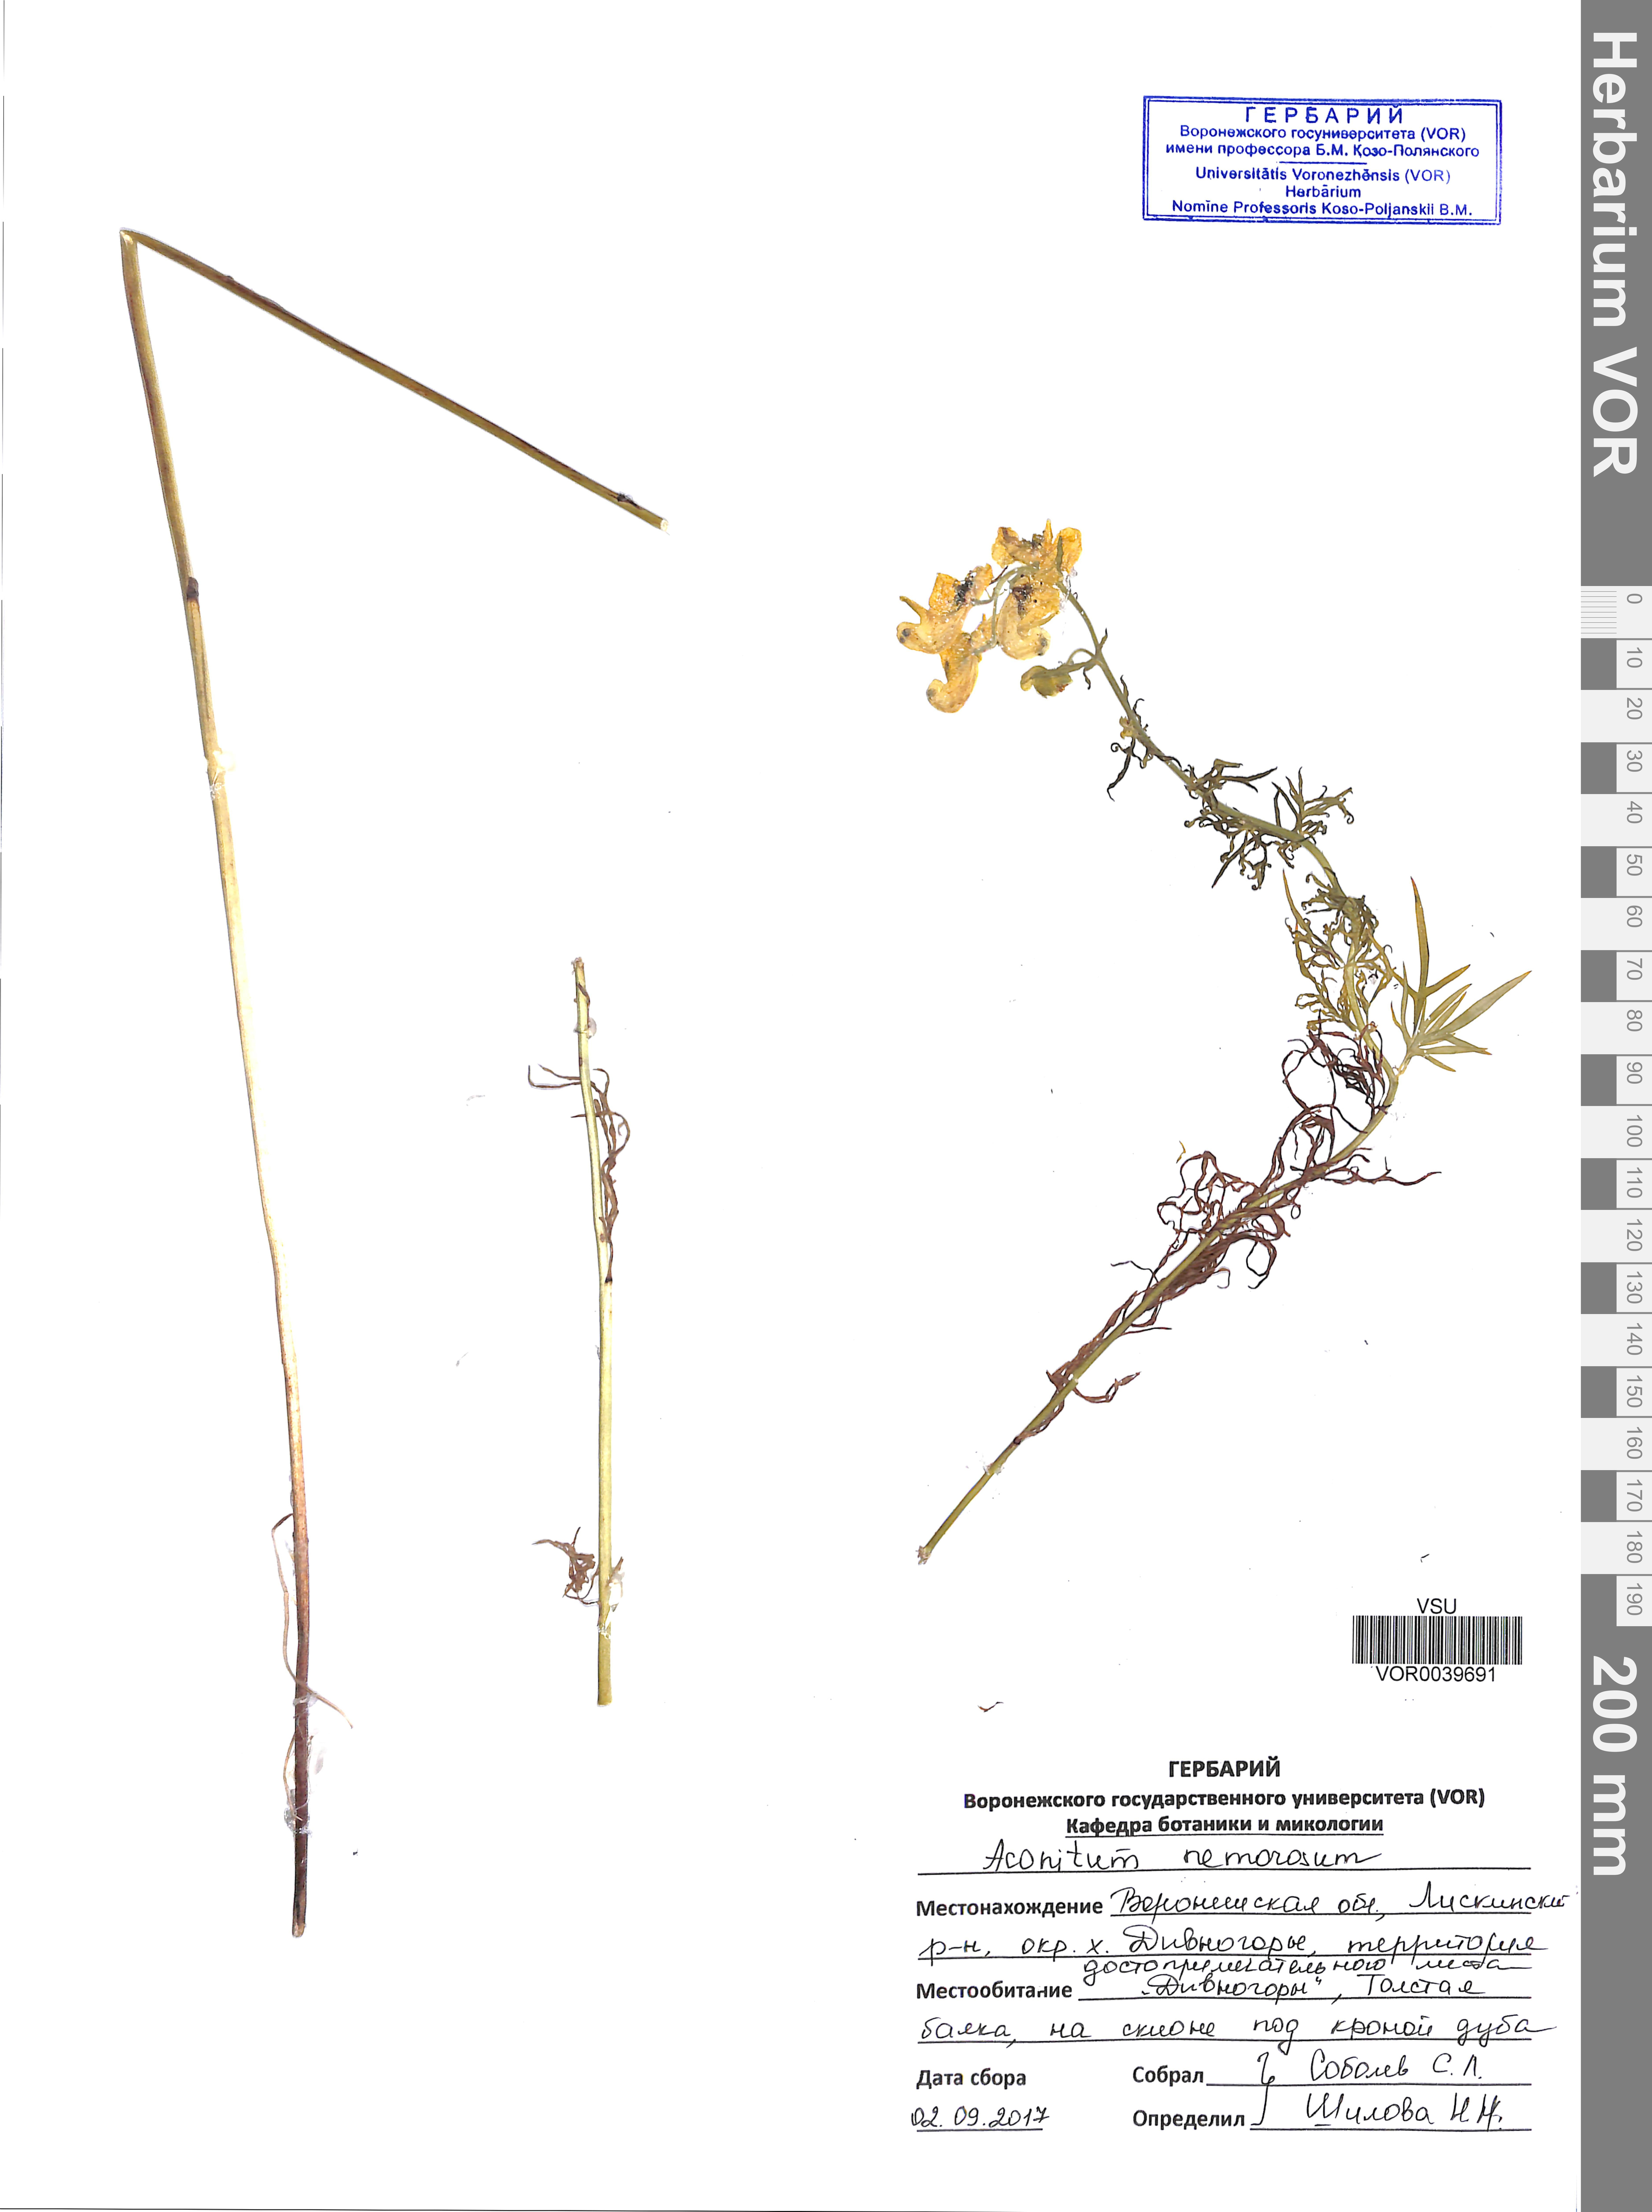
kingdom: Plantae
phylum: Tracheophyta
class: Magnoliopsida
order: Ranunculales
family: Ranunculaceae
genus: Aconitum
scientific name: Aconitum anthora
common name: Yellow monkshood
